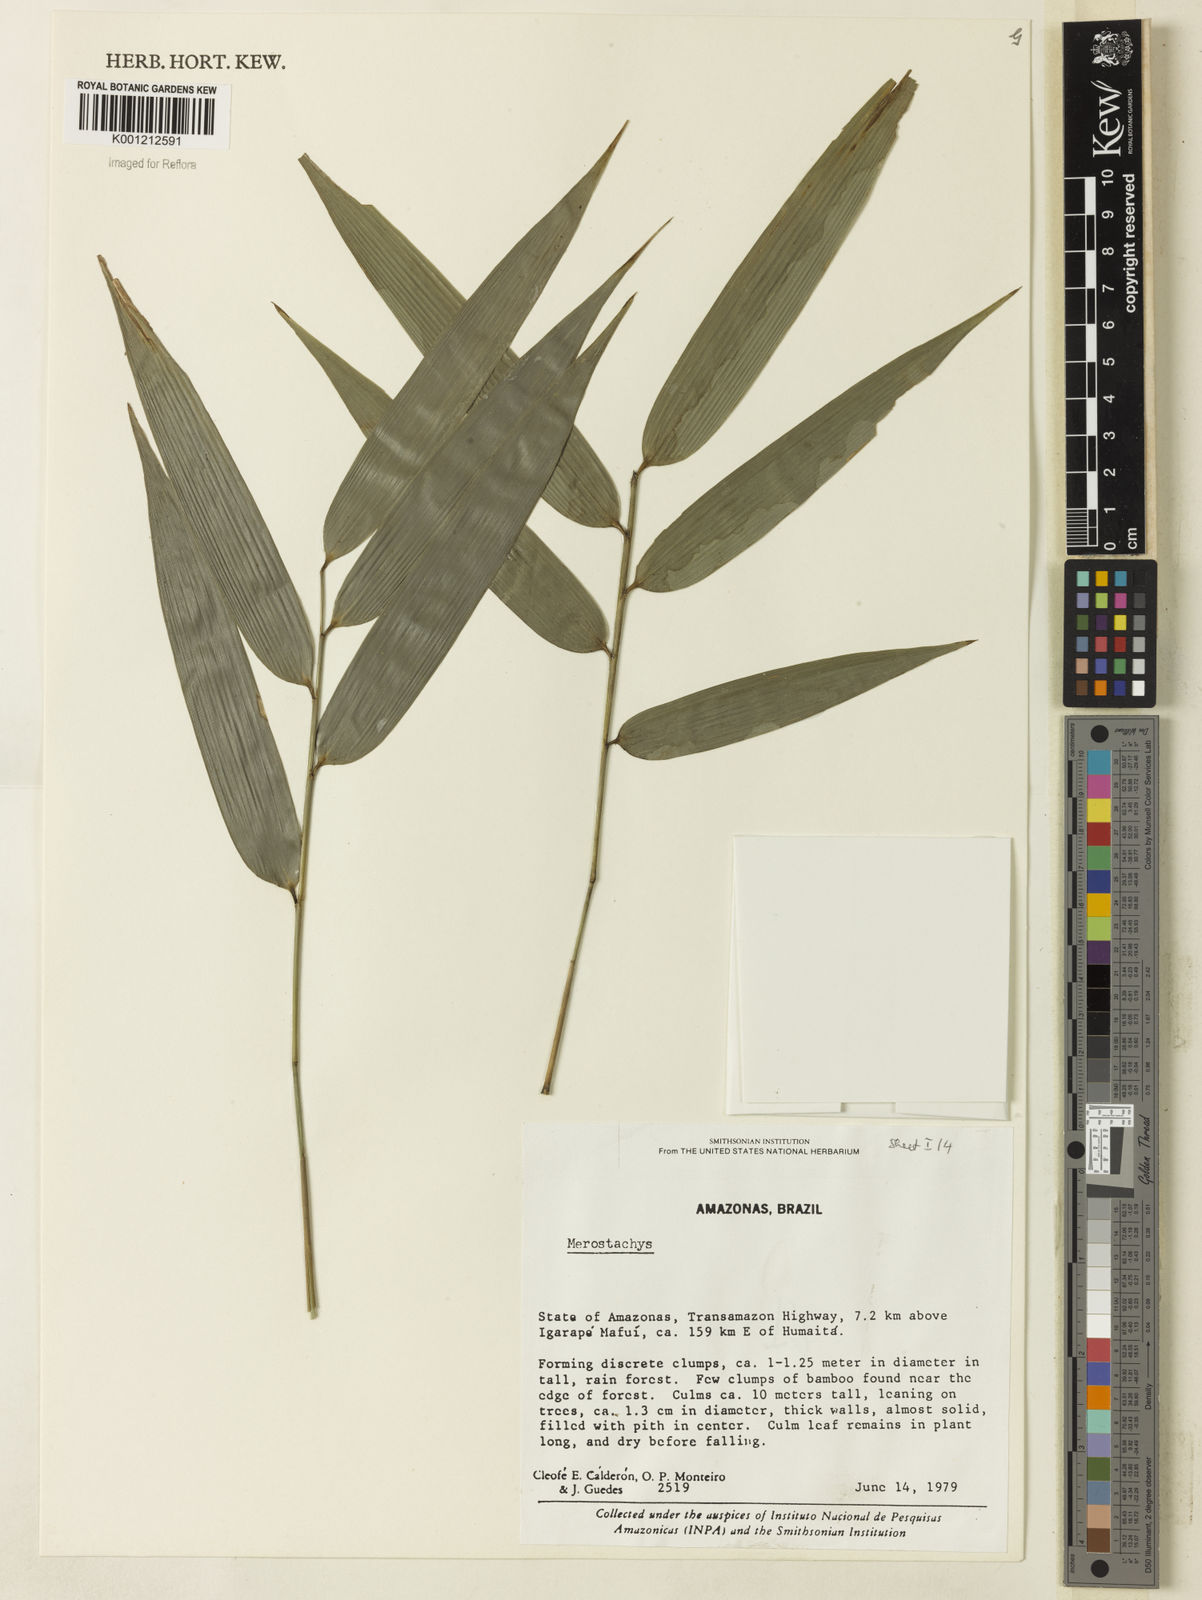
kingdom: Plantae
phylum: Tracheophyta
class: Liliopsida
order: Poales
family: Poaceae
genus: Merostachys
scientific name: Merostachys
